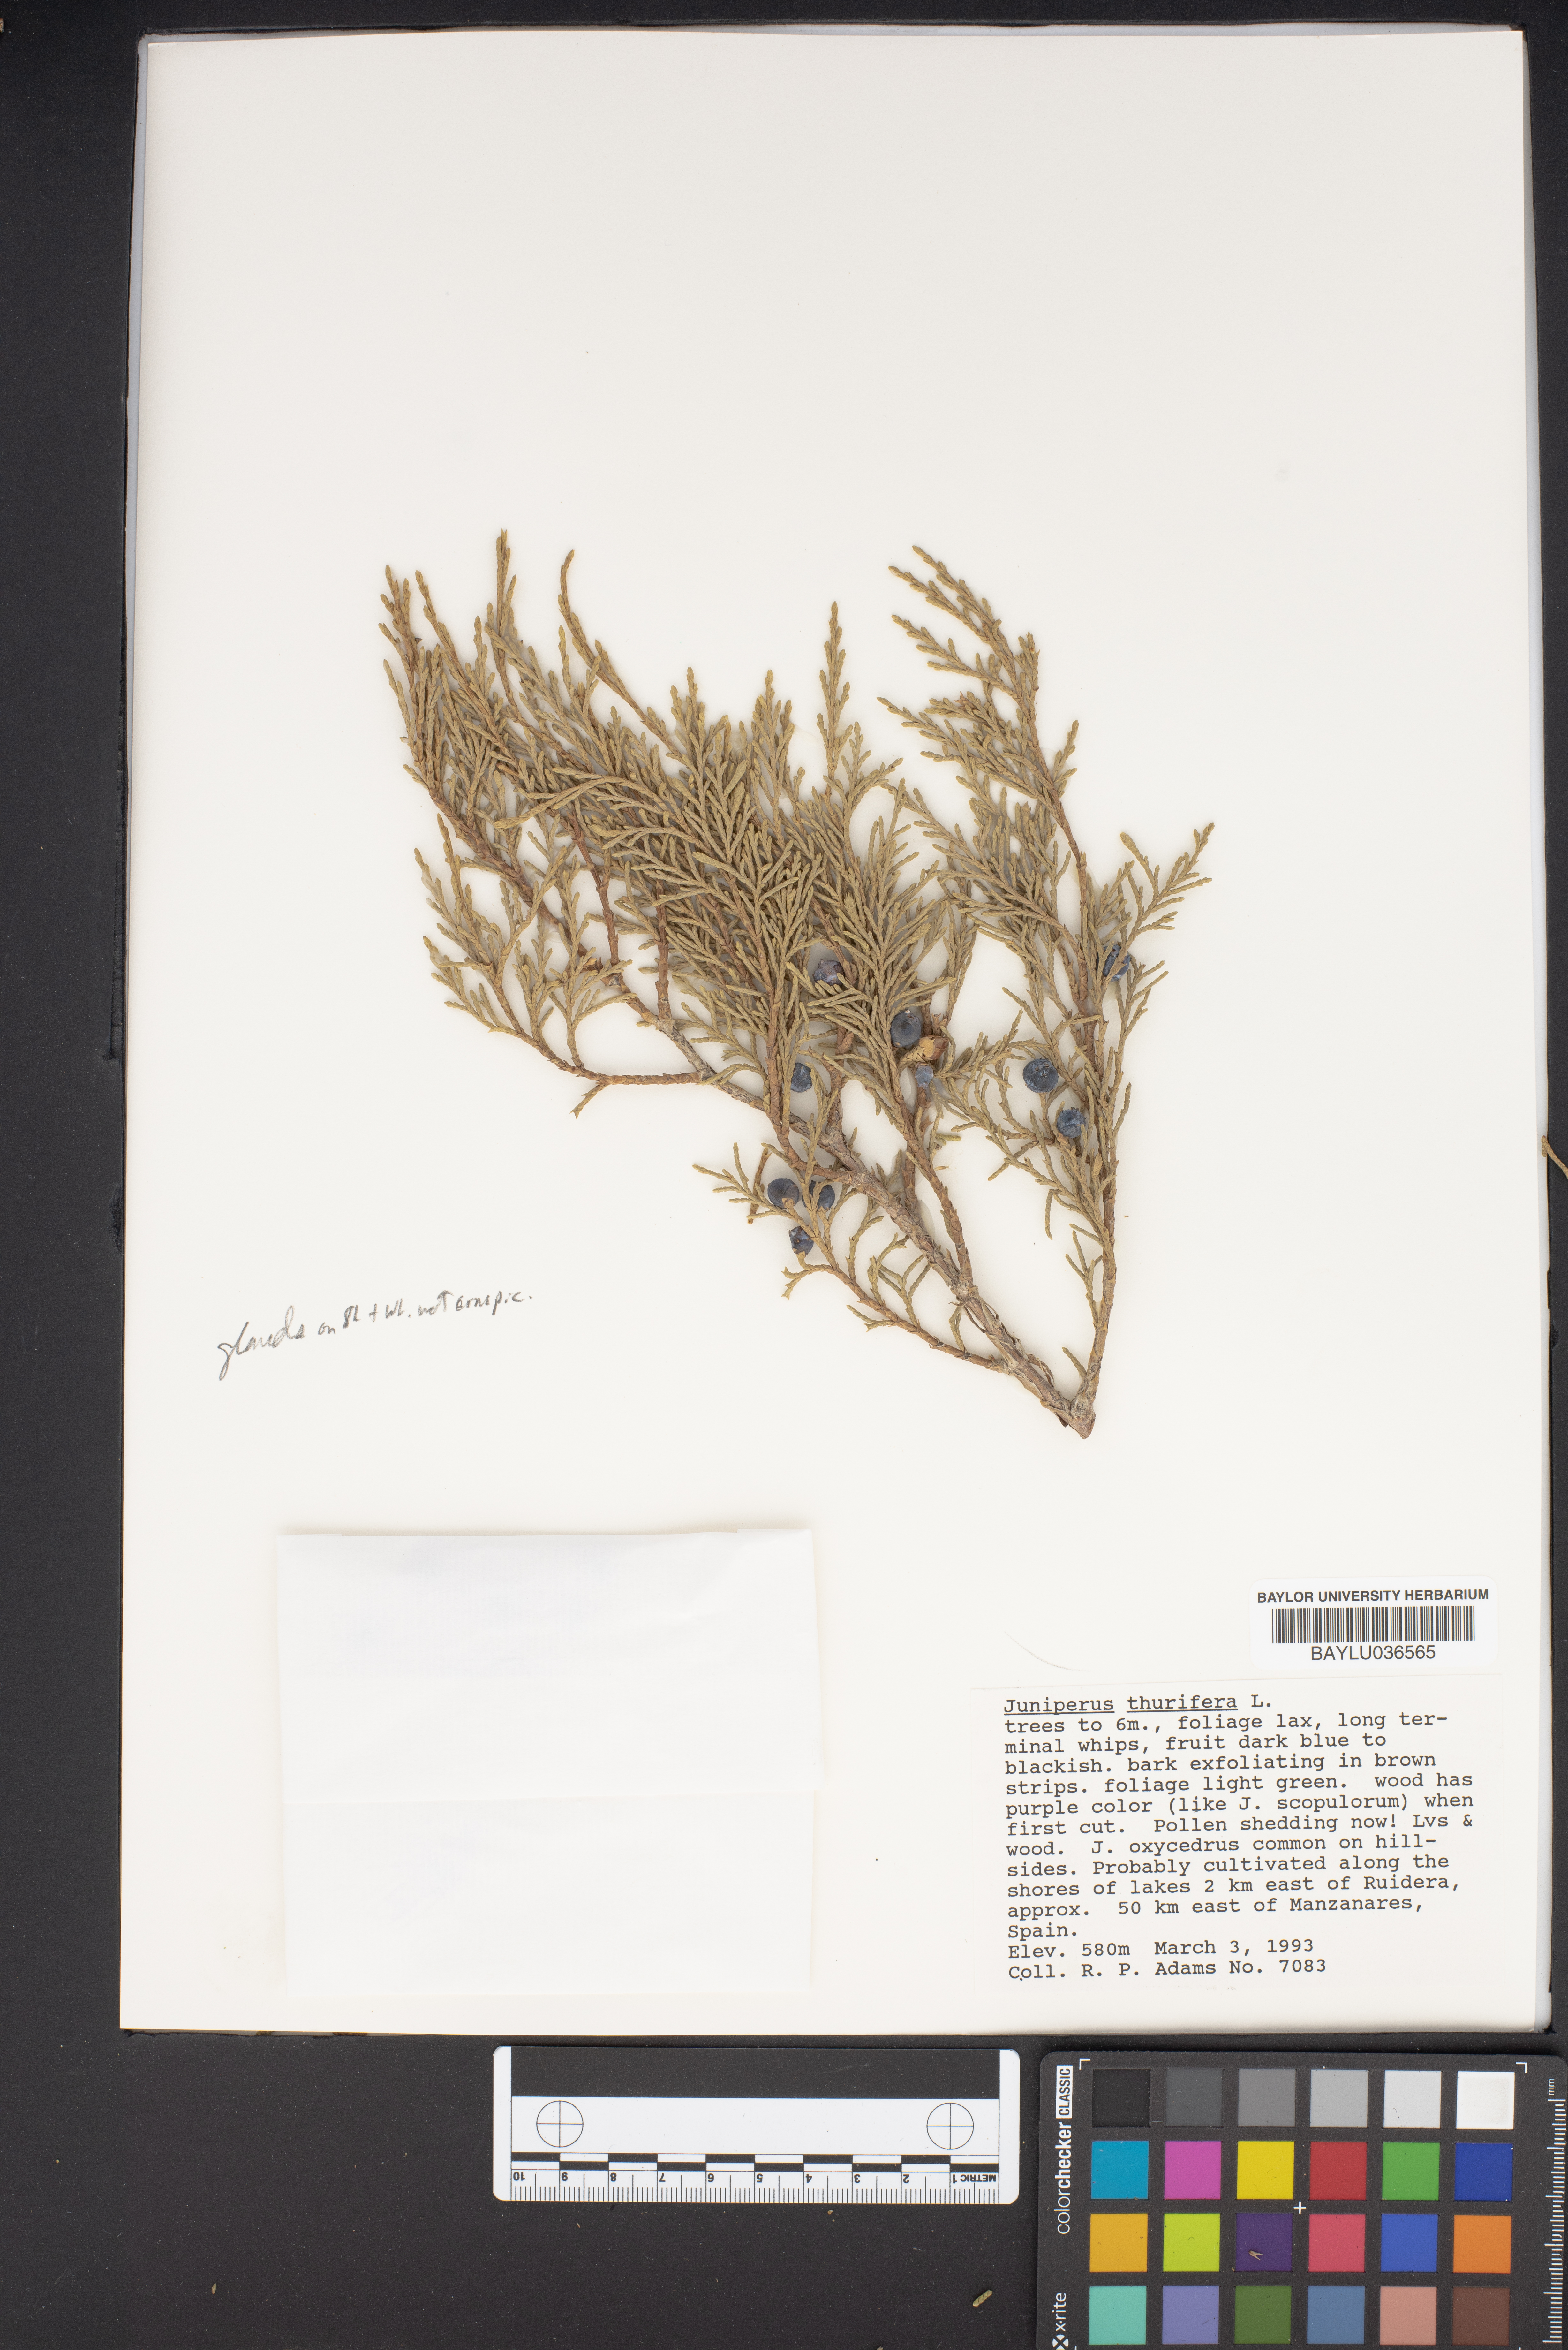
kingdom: Plantae
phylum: Tracheophyta
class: Pinopsida
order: Pinales
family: Cupressaceae
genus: Juniperus
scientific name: Juniperus thurifera
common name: Incense juniper
